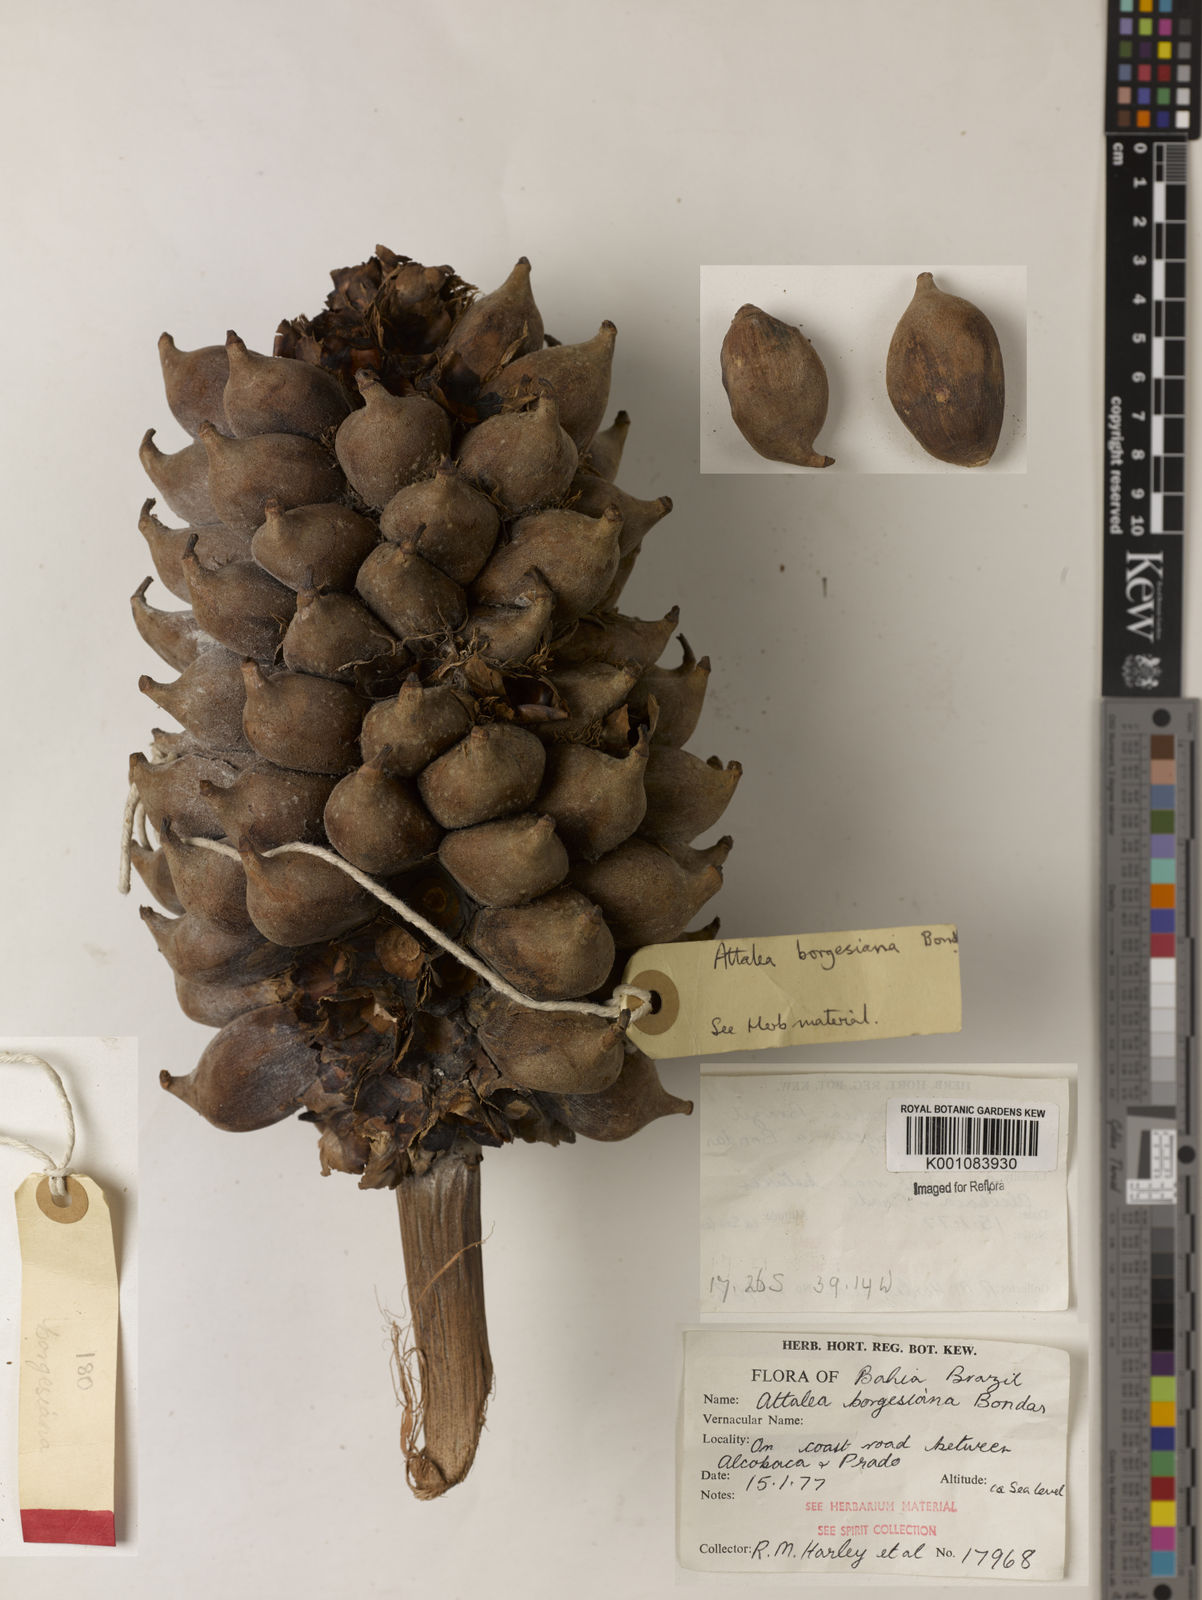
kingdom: Plantae
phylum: Tracheophyta
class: Liliopsida
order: Arecales
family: Arecaceae
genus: Attalea
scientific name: Attalea humilis
